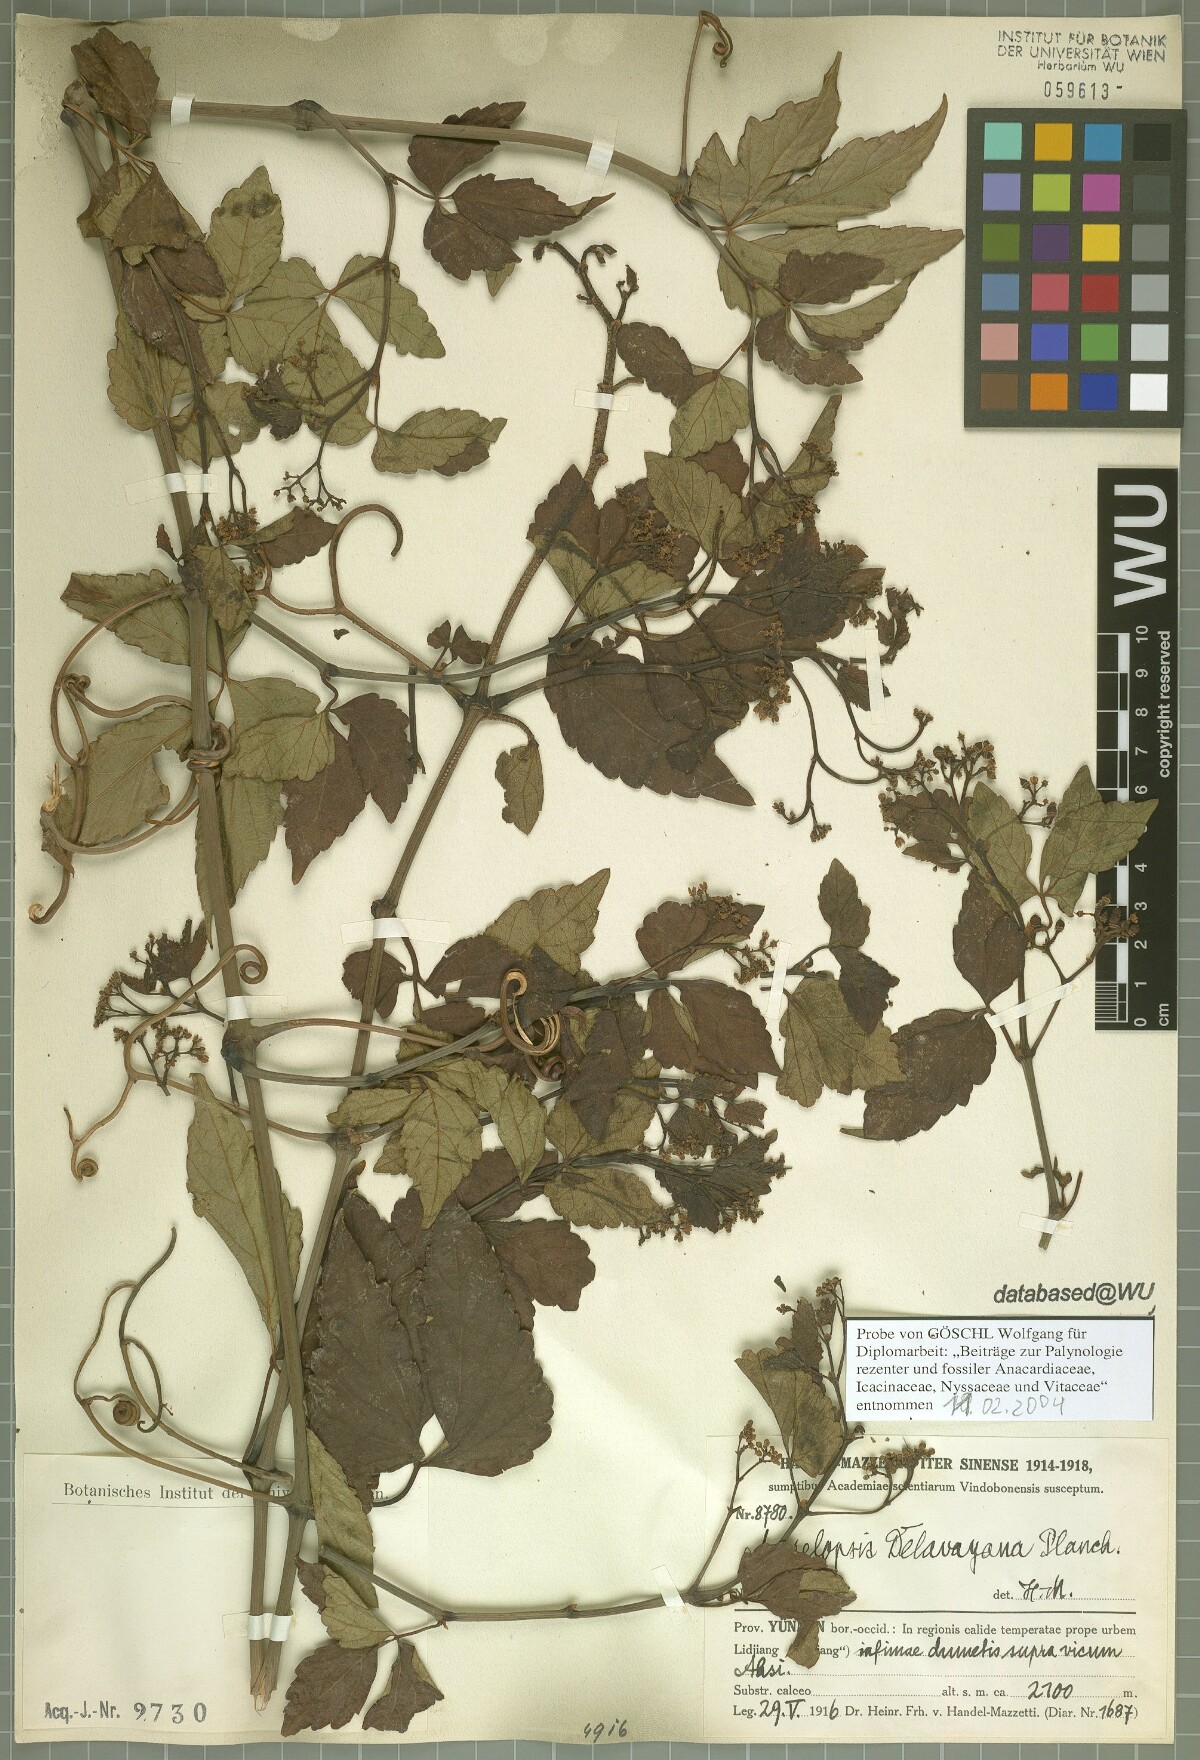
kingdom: Plantae
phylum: Tracheophyta
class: Magnoliopsida
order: Vitales
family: Vitaceae
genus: Ampelopsis
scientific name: Ampelopsis delavayana
